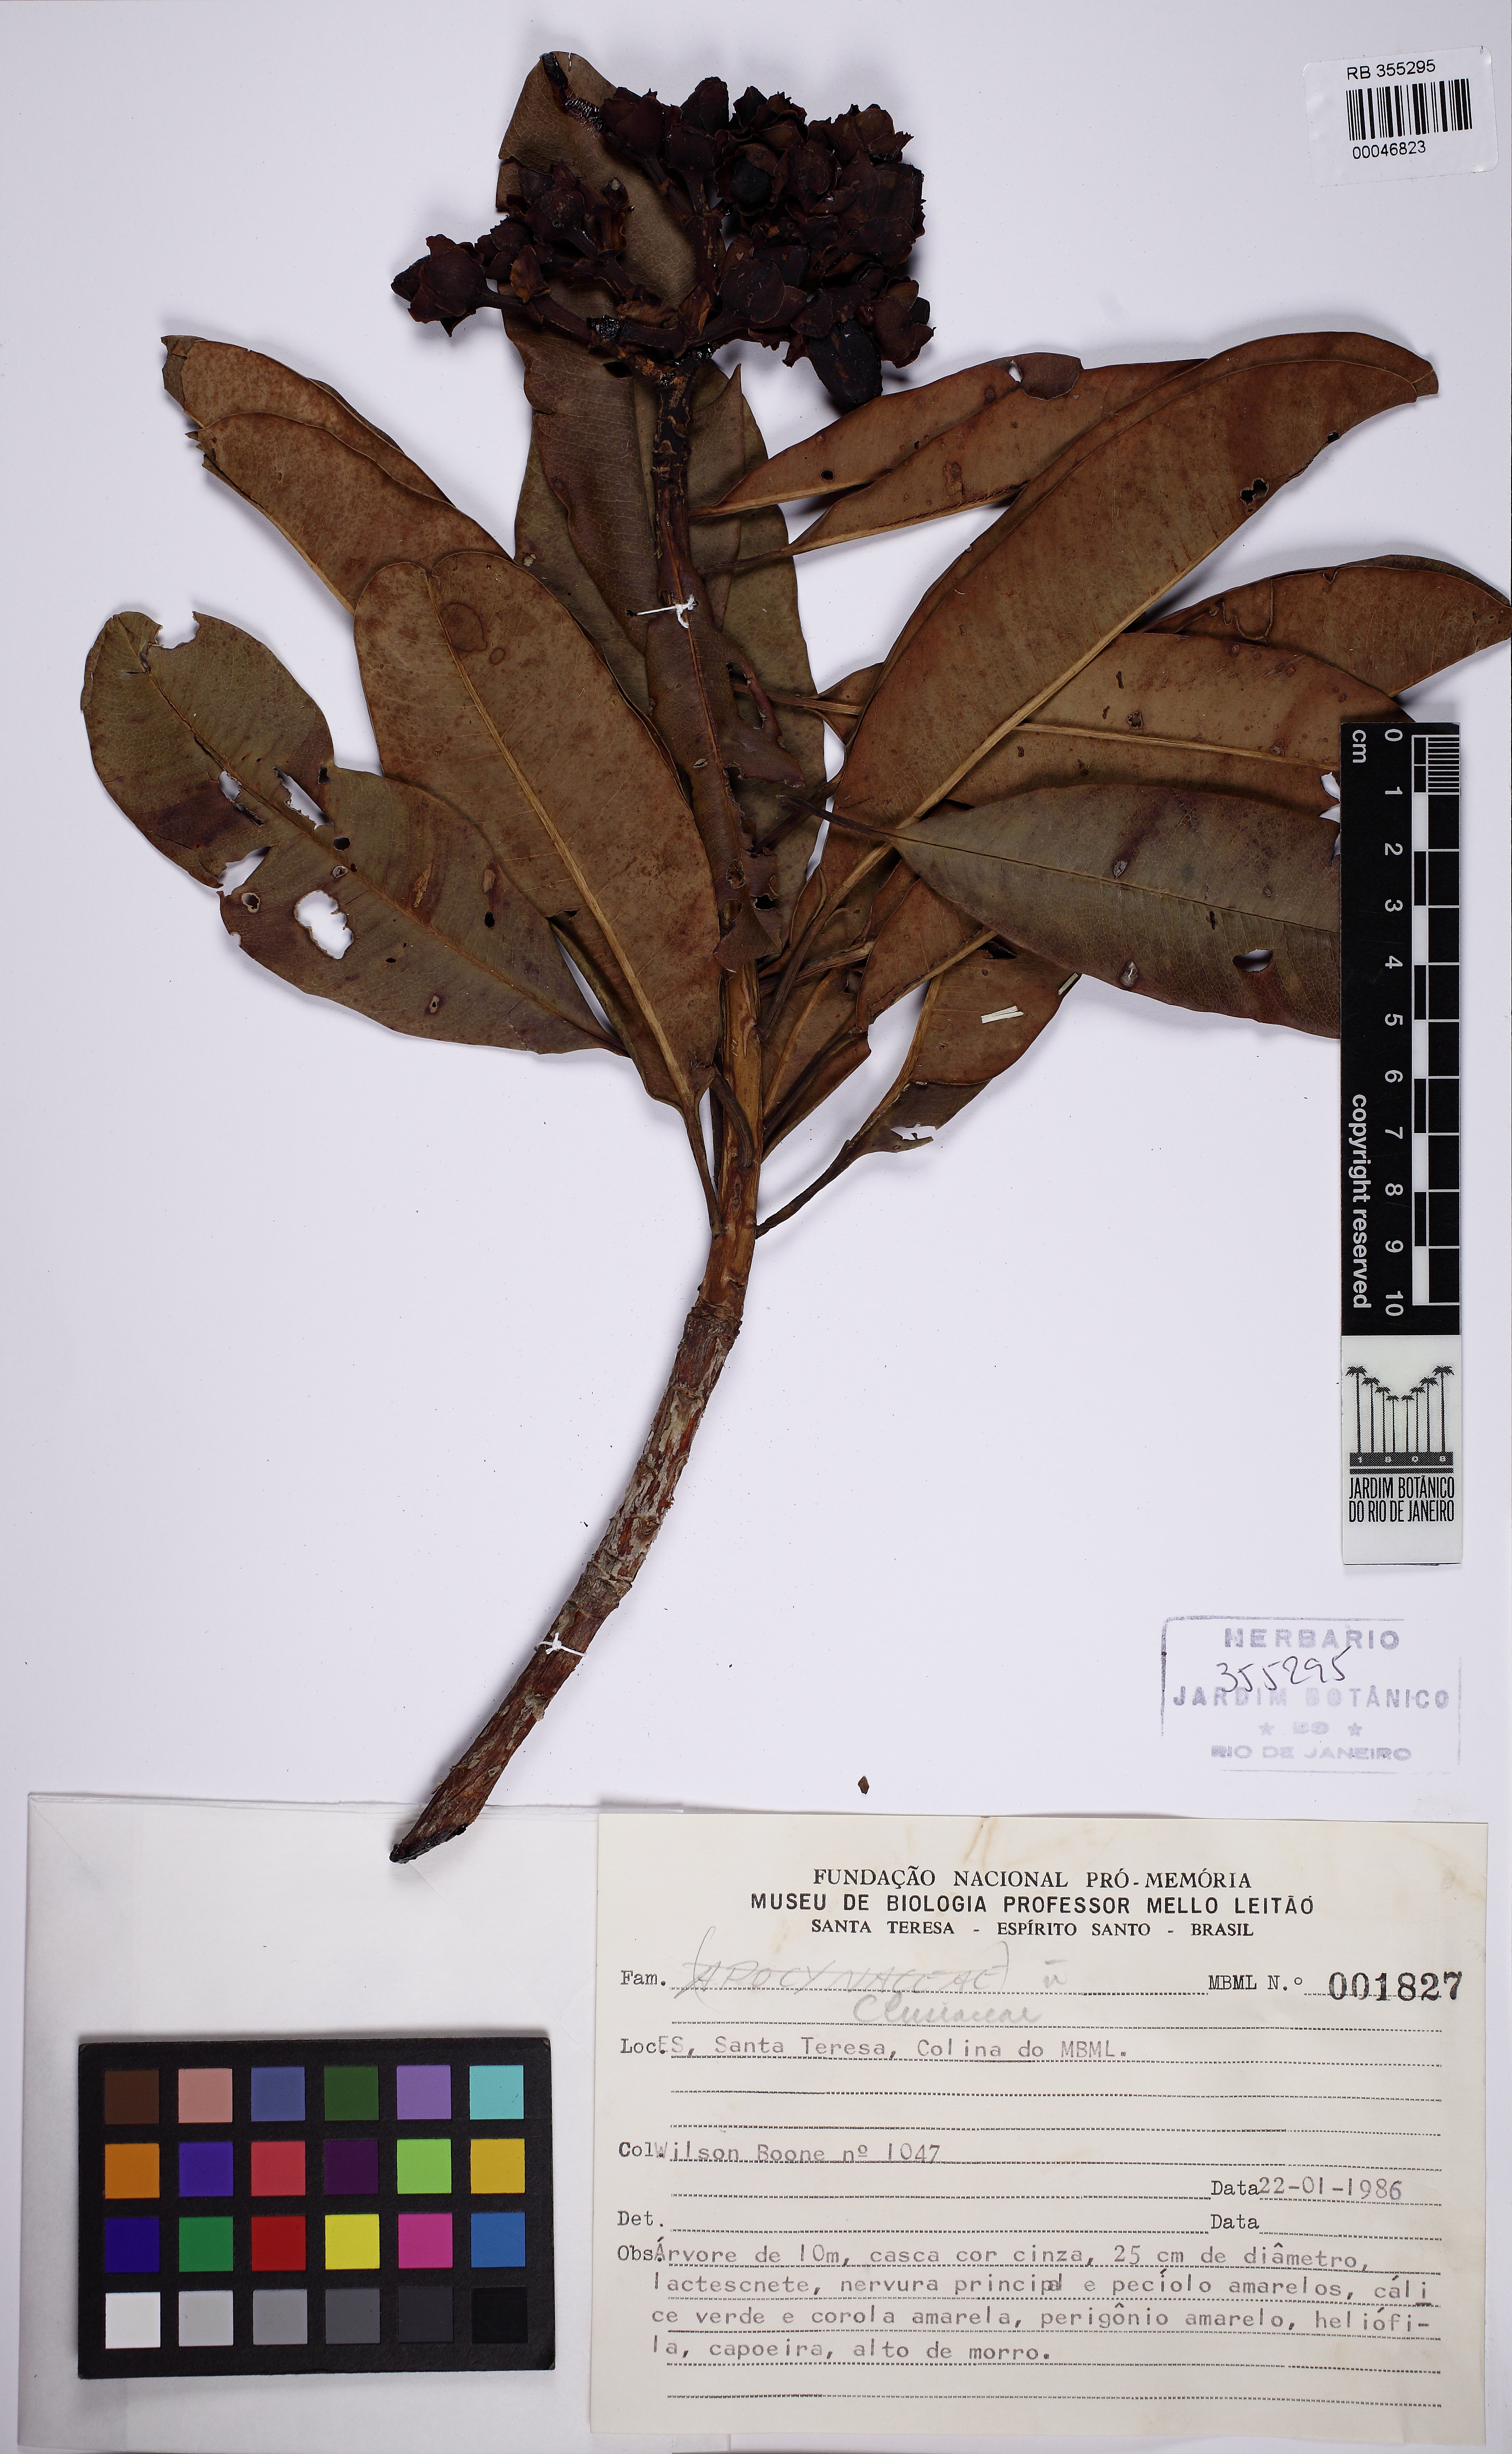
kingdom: Plantae
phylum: Tracheophyta
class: Magnoliopsida
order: Malpighiales
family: Calophyllaceae
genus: Kielmeyera
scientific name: Kielmeyera
